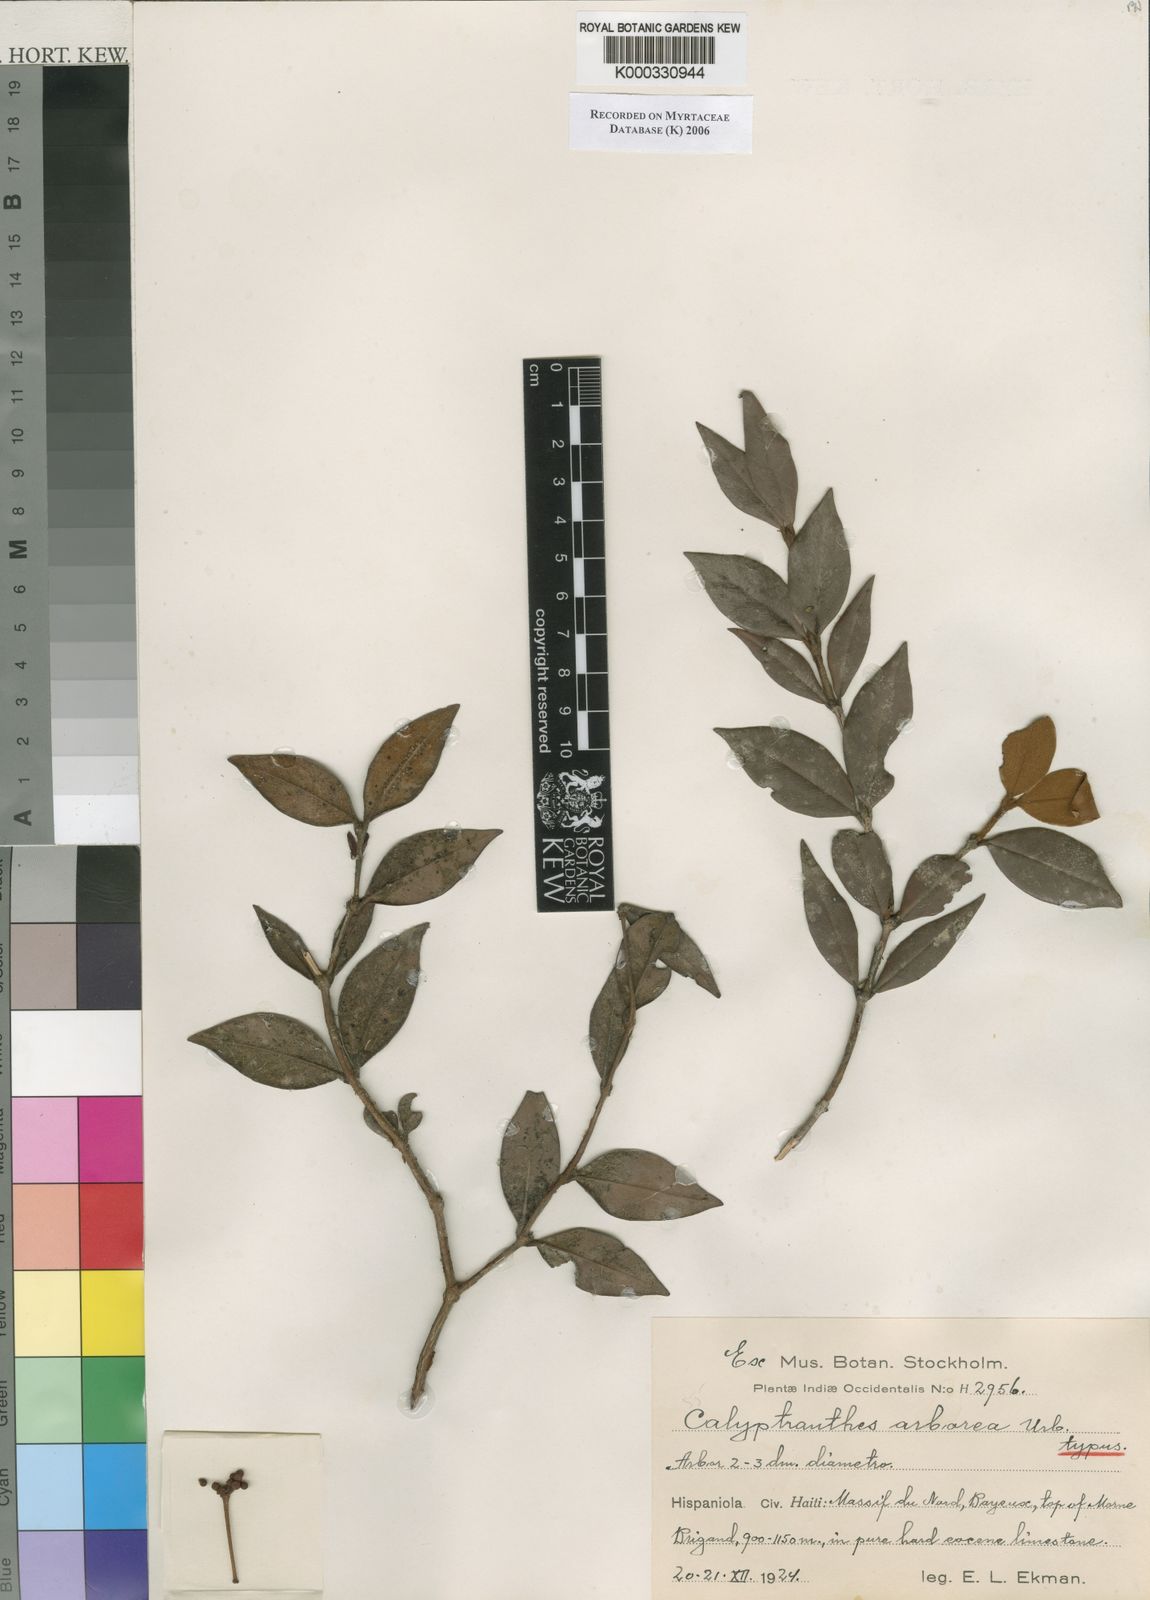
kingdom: Plantae
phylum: Tracheophyta
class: Magnoliopsida
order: Myrtales
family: Myrtaceae
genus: Myrcia
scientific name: Myrcia arborea
